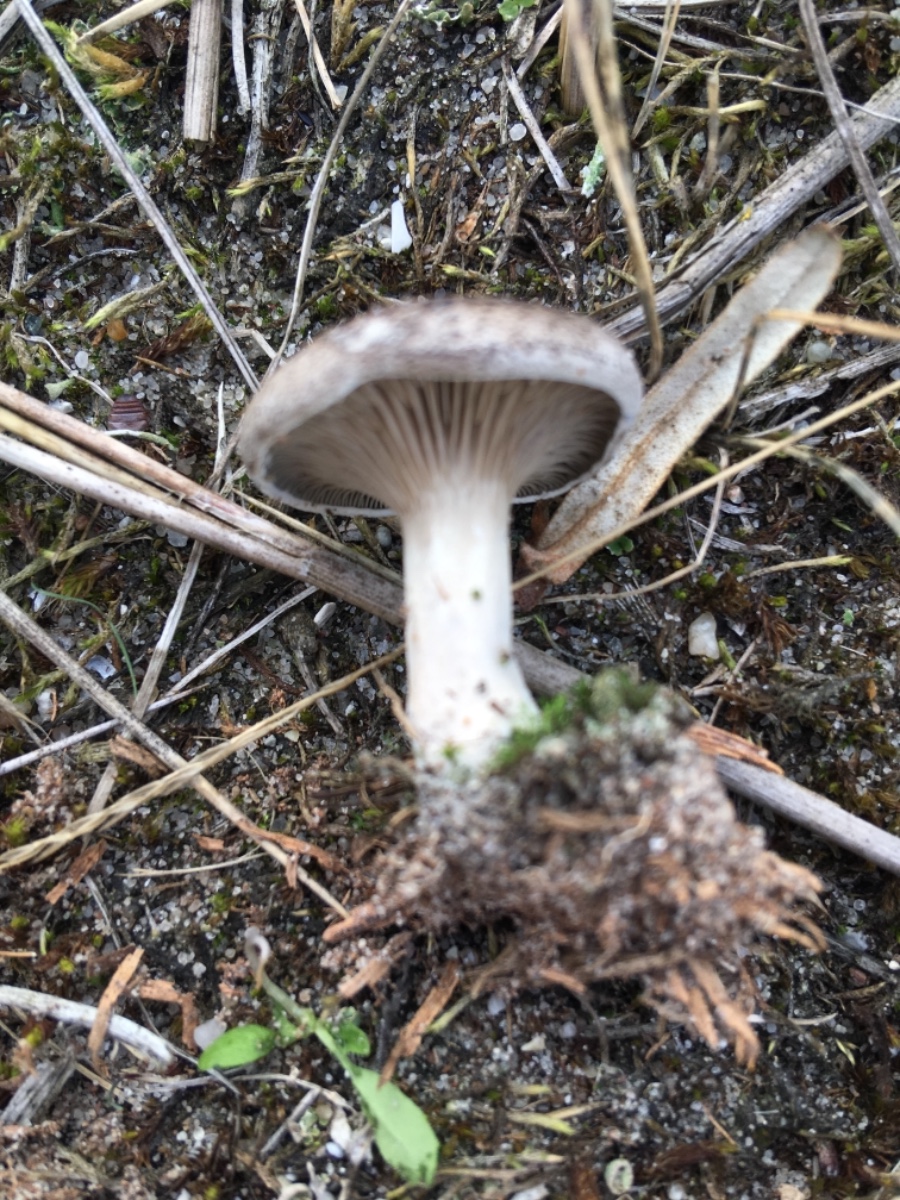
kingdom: Fungi
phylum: Basidiomycota
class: Agaricomycetes
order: Agaricales
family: Tricholomataceae
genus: Lulesia
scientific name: Lulesia
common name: sortnende troldhat
